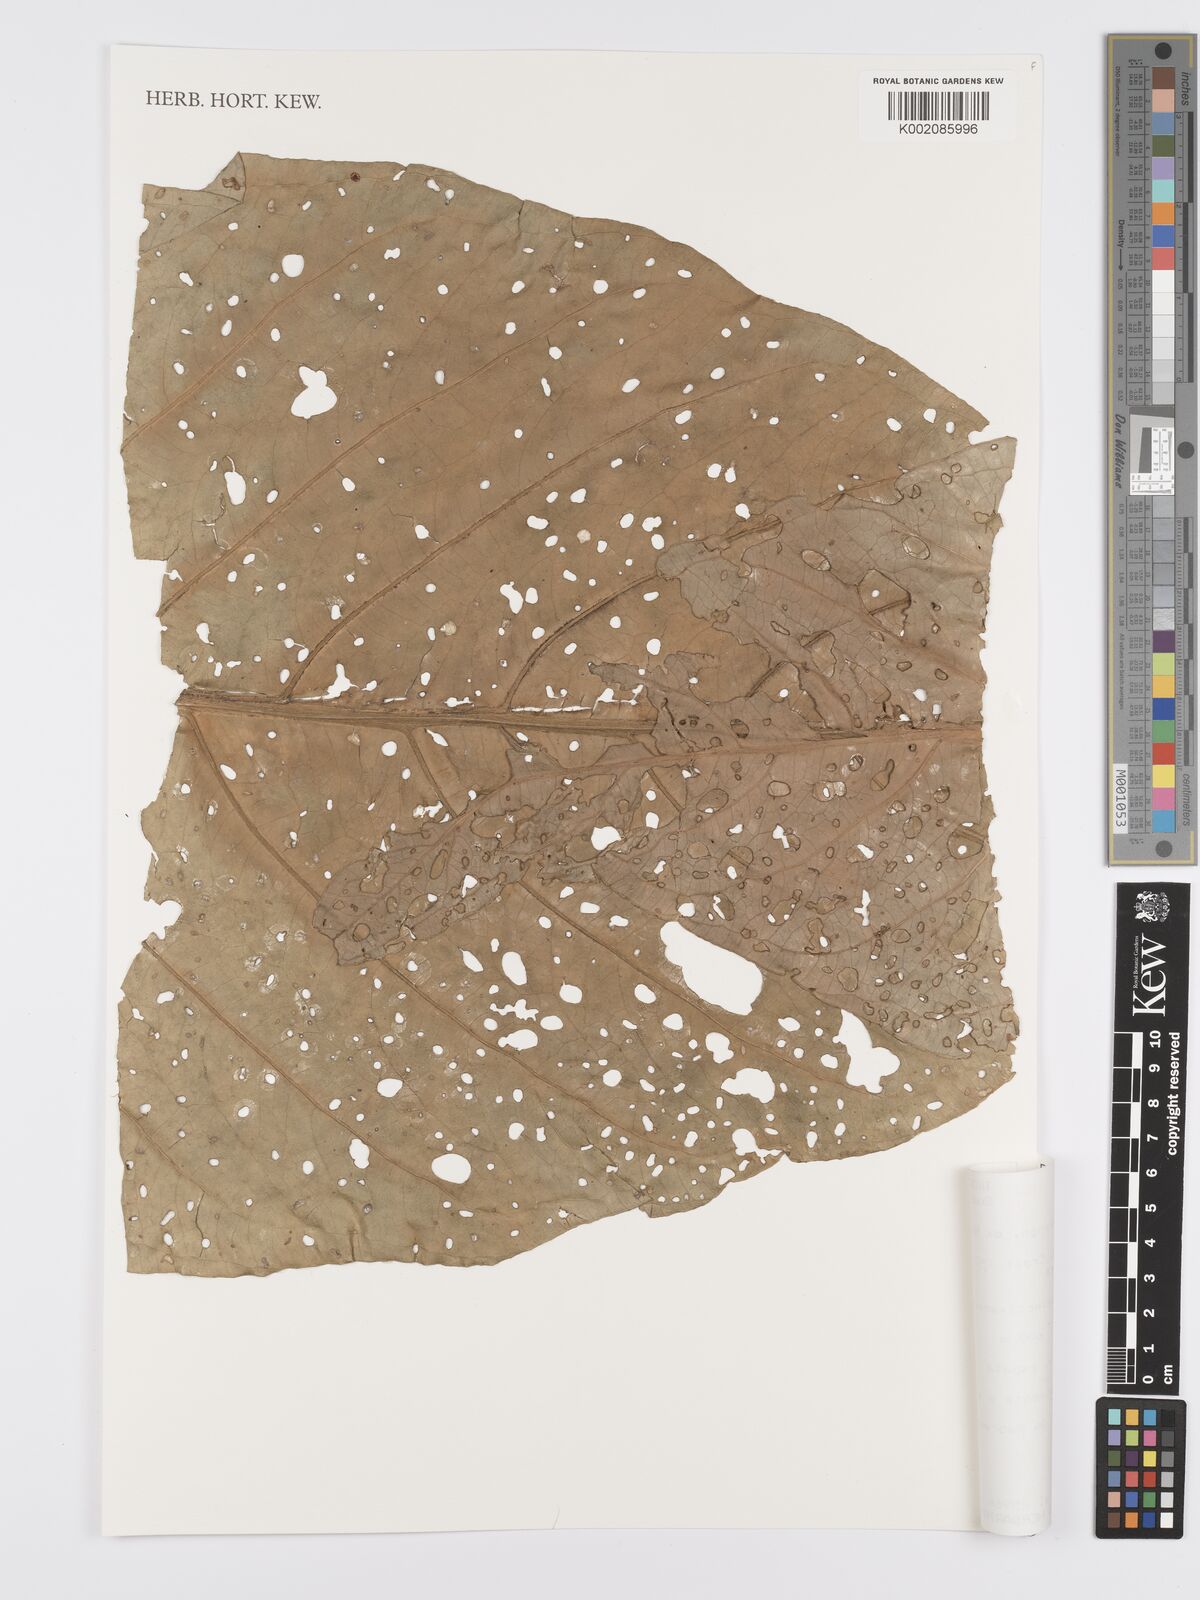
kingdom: Plantae
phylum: Tracheophyta
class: Liliopsida
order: Alismatales
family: Araceae
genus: Anthurium
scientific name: Anthurium dombeyanum
